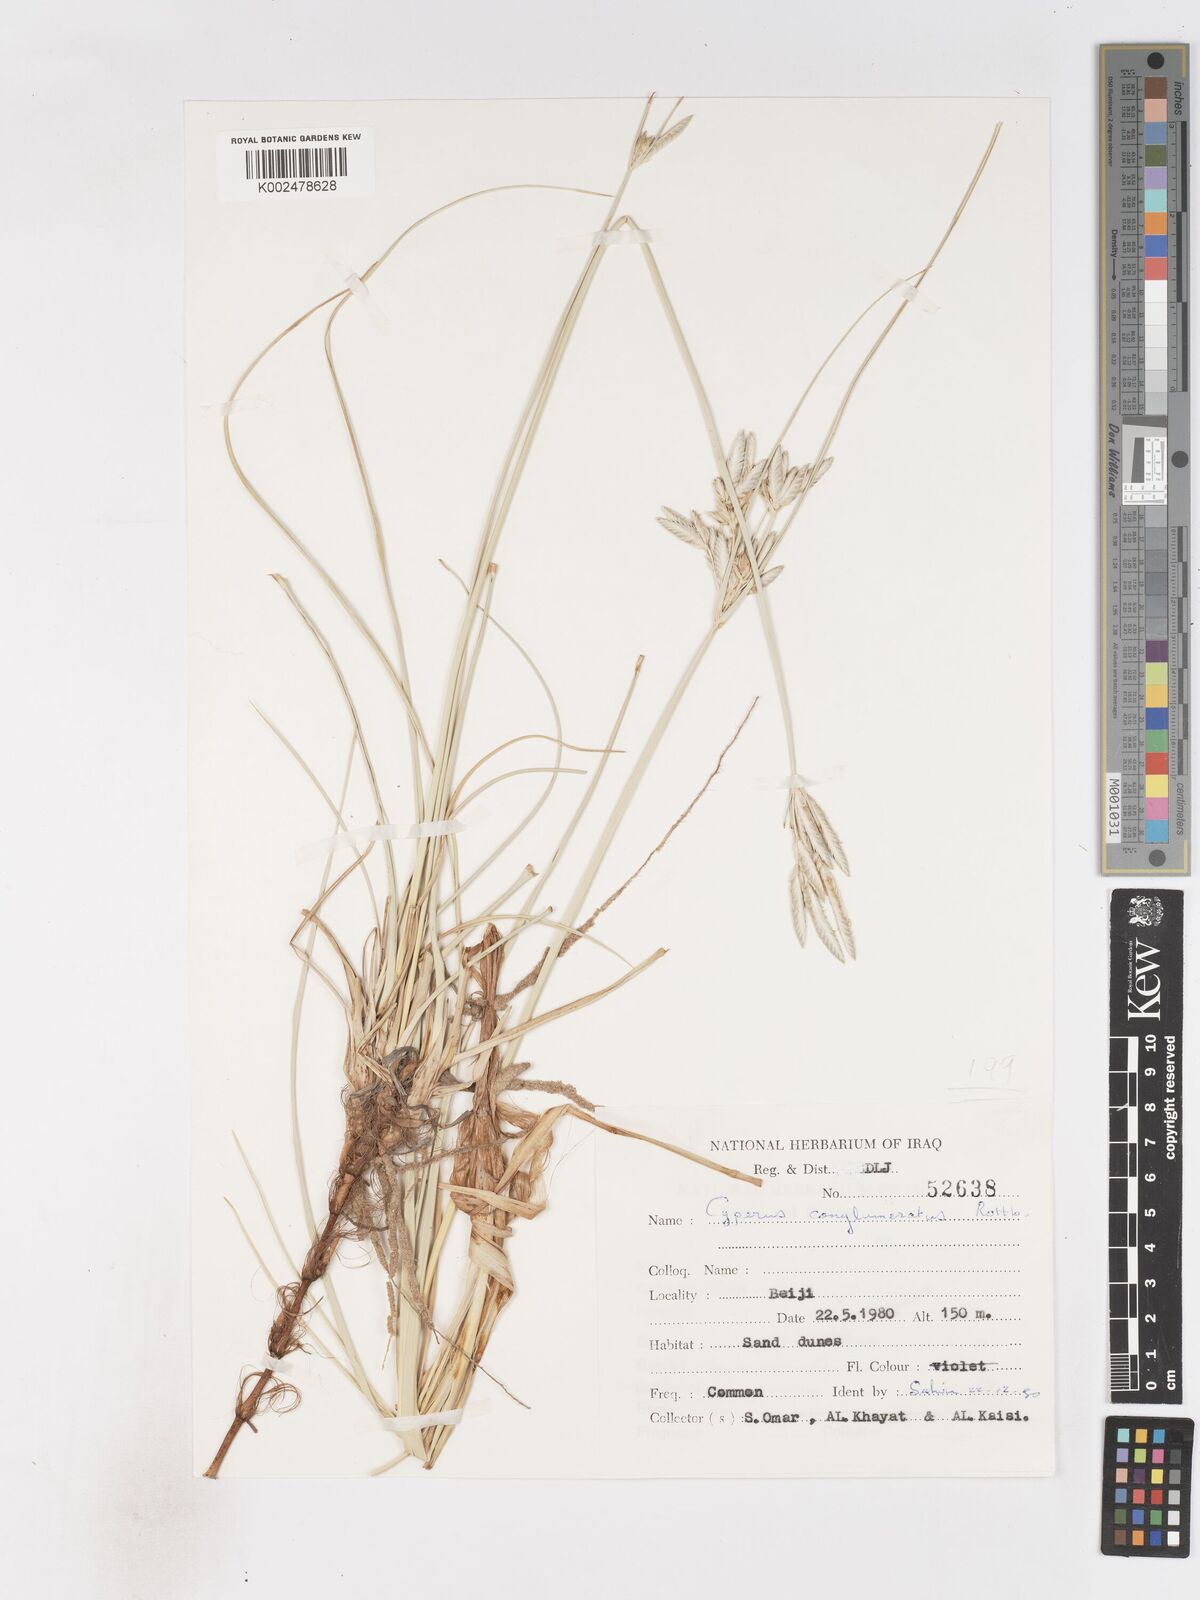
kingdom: Plantae
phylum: Tracheophyta
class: Liliopsida
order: Poales
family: Cyperaceae
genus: Cyperus
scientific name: Cyperus conglomeratus
